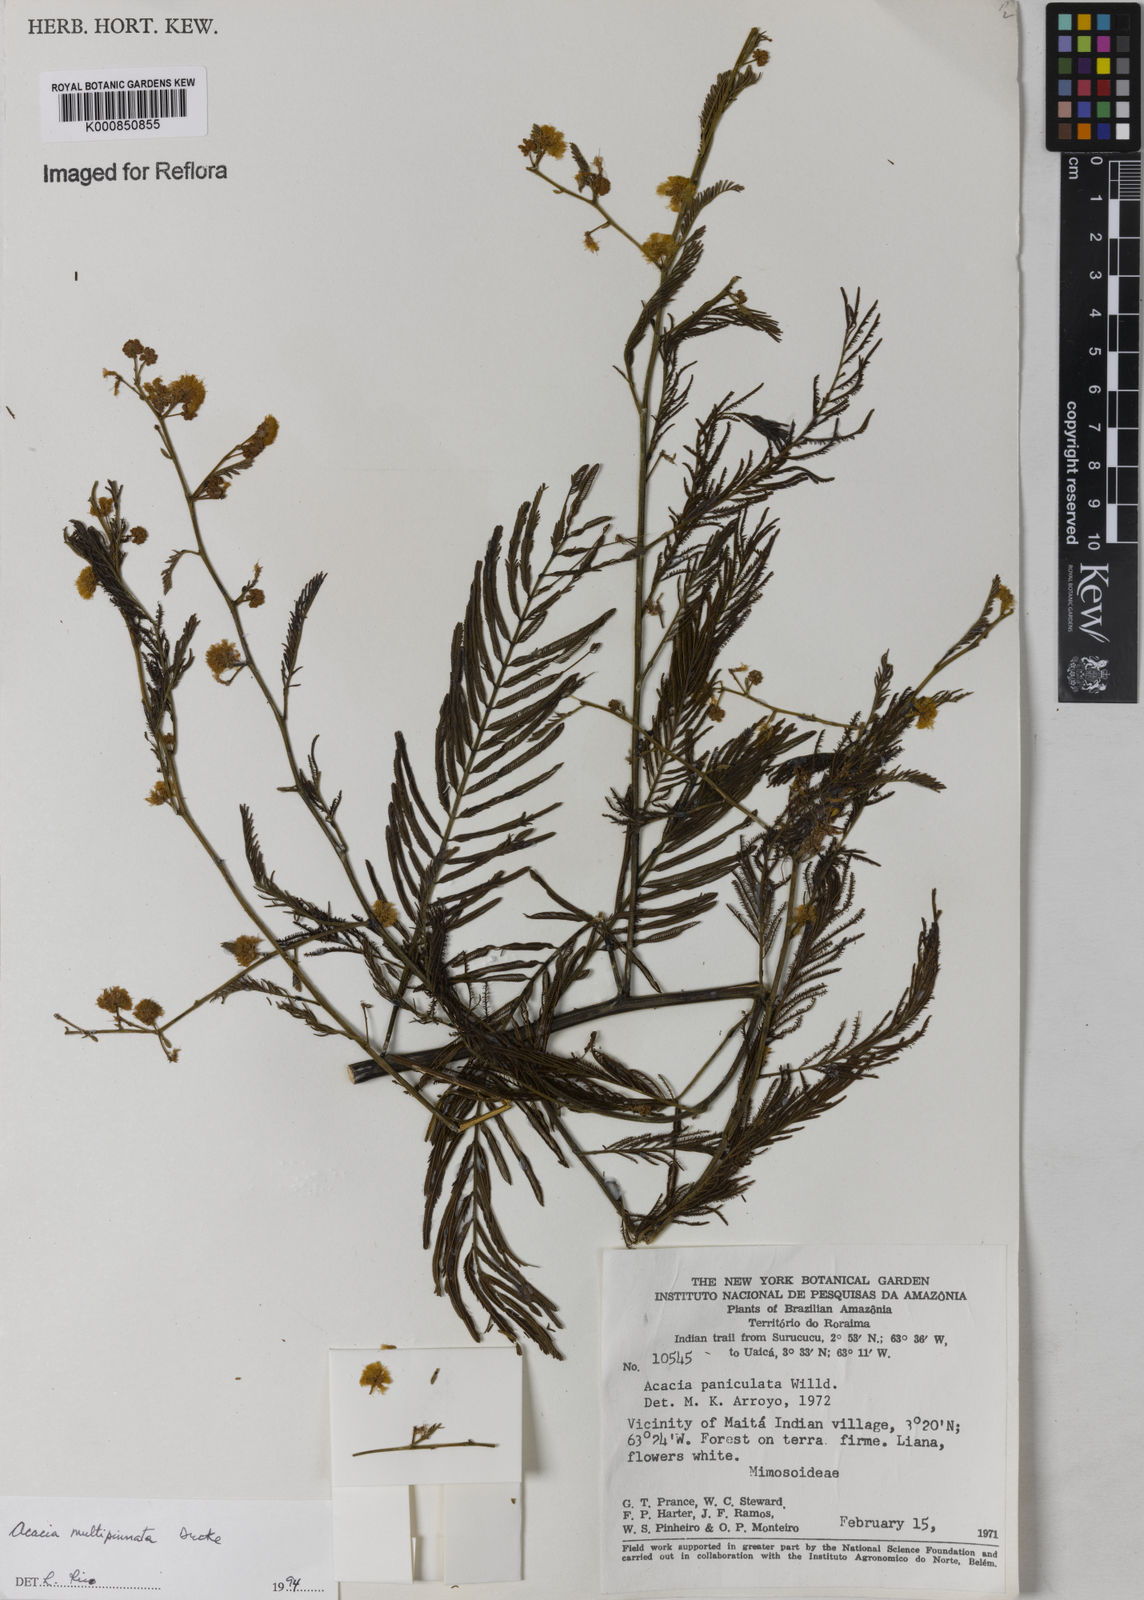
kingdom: Plantae
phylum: Tracheophyta
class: Magnoliopsida
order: Fabales
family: Fabaceae
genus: Senegalia
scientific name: Senegalia paniculata
